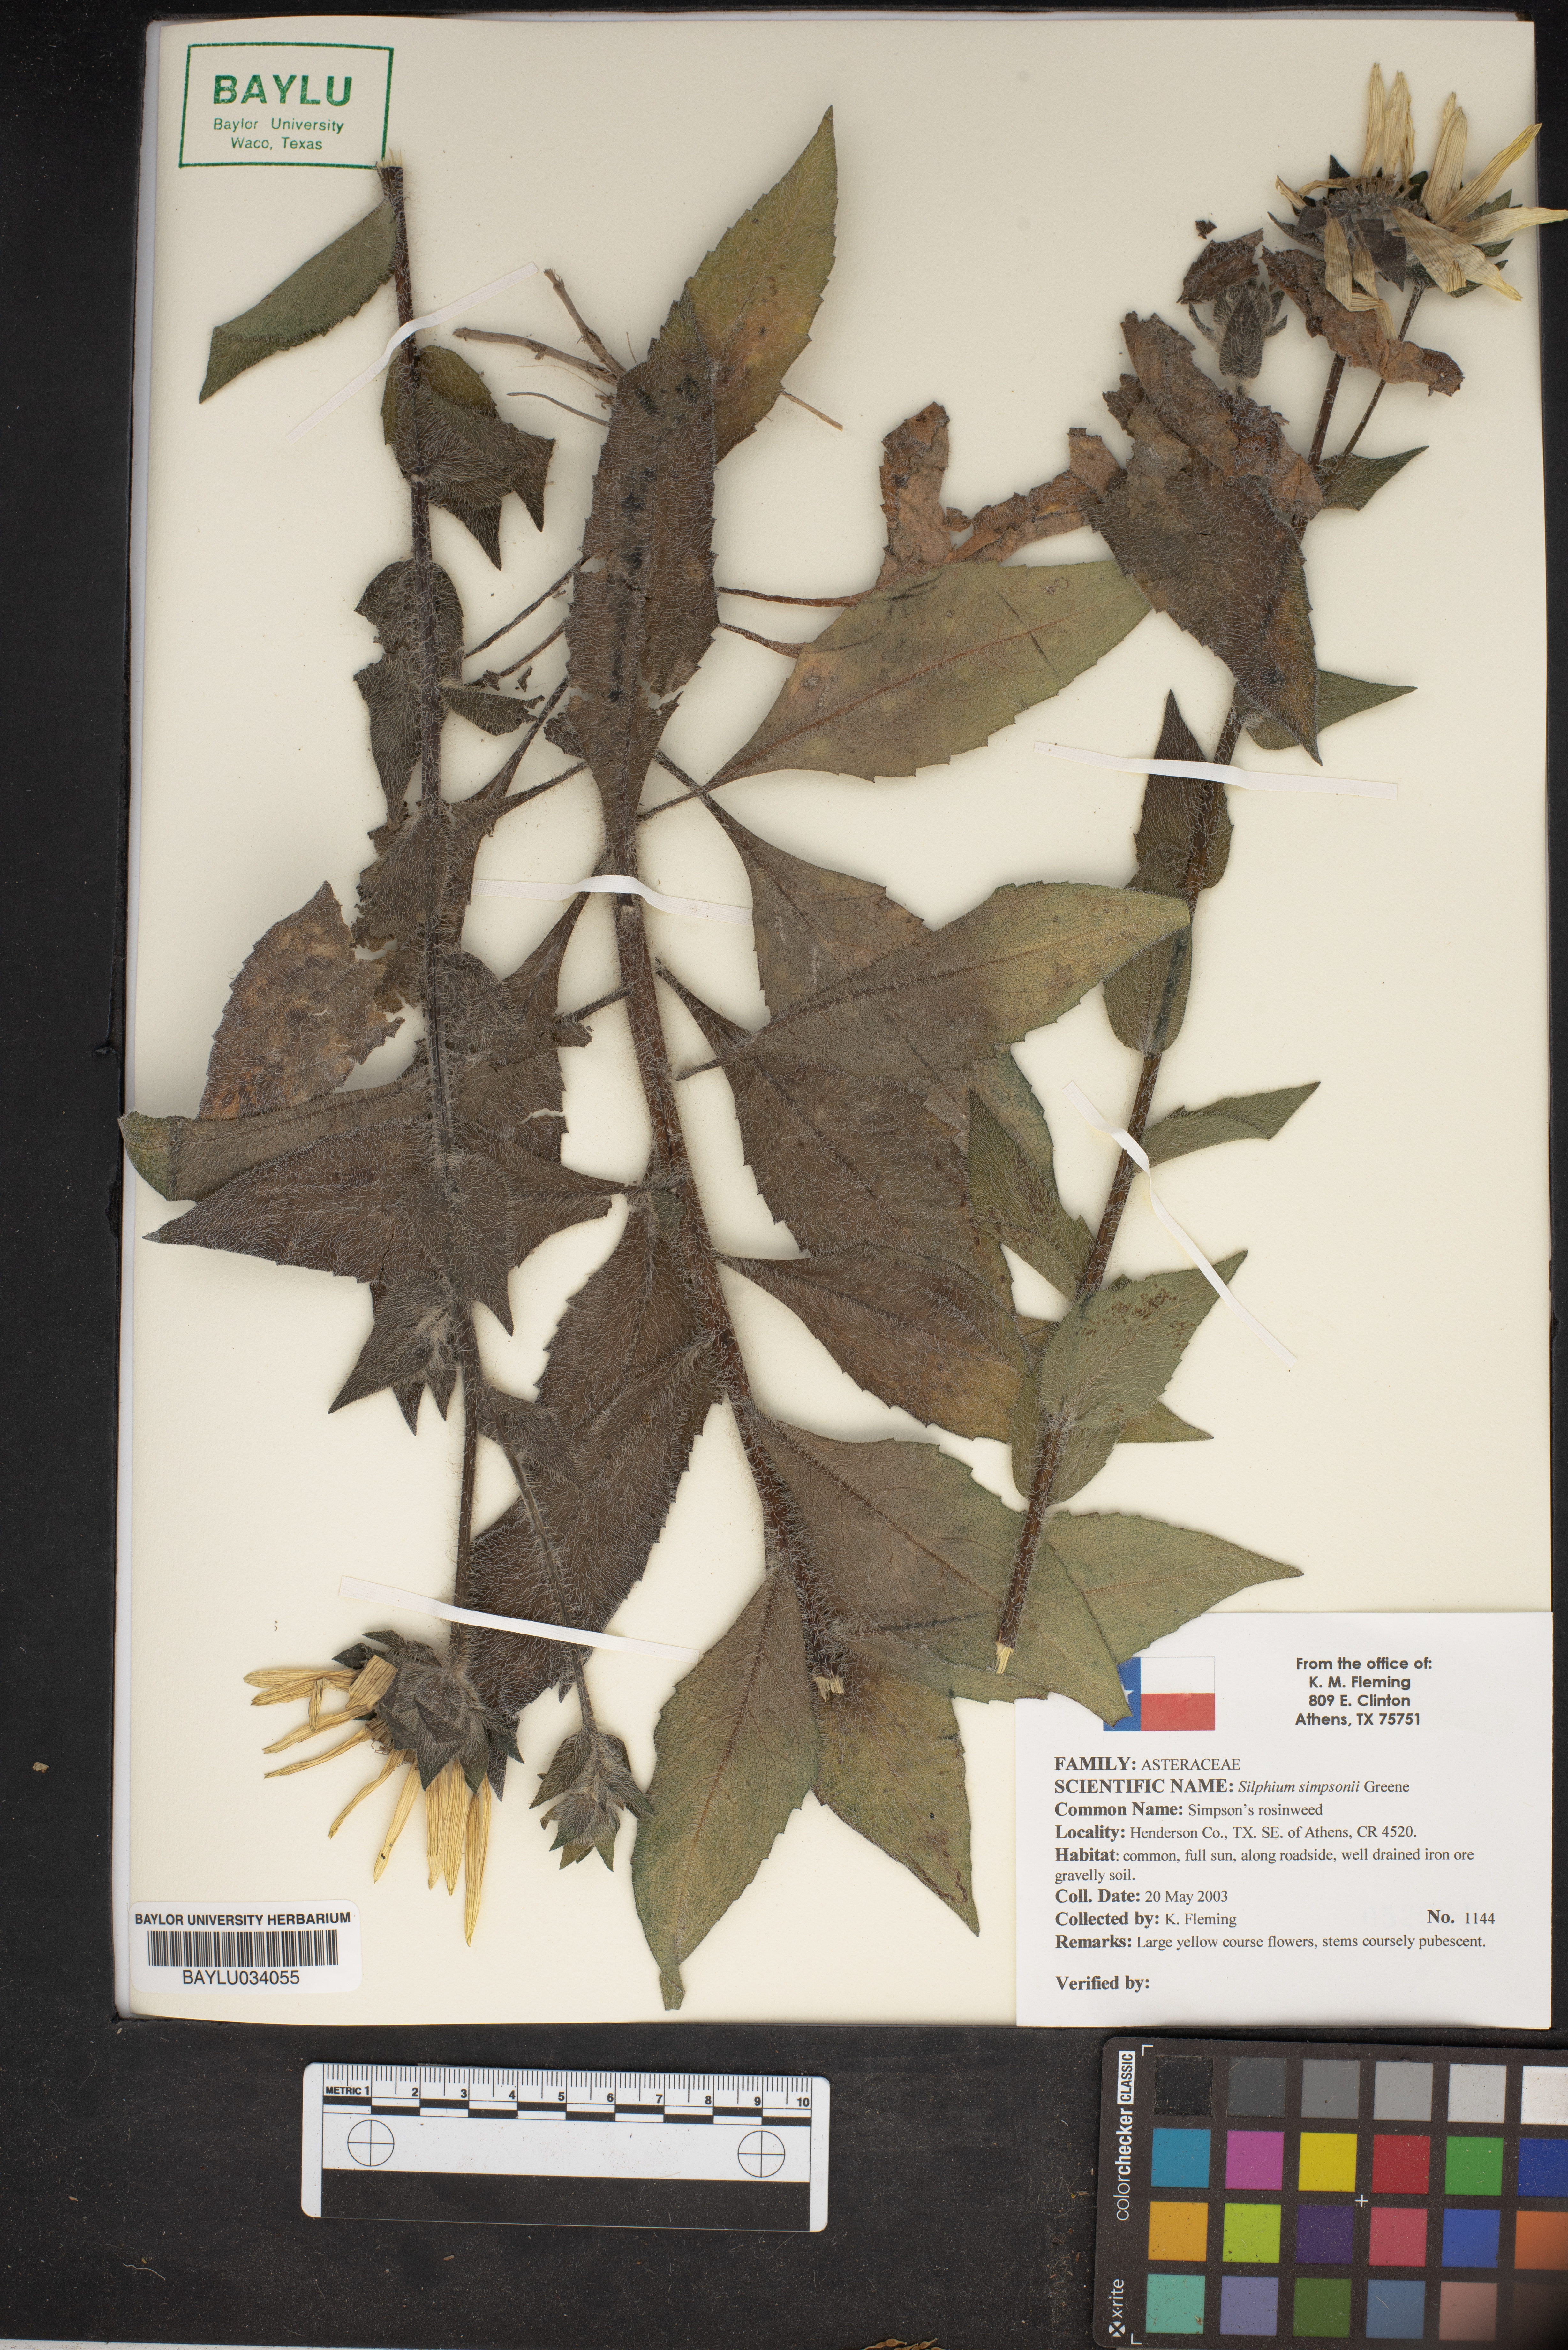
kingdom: Plantae
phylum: Tracheophyta
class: Magnoliopsida
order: Asterales
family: Asteraceae
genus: Silphium
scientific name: Silphium asteriscus
